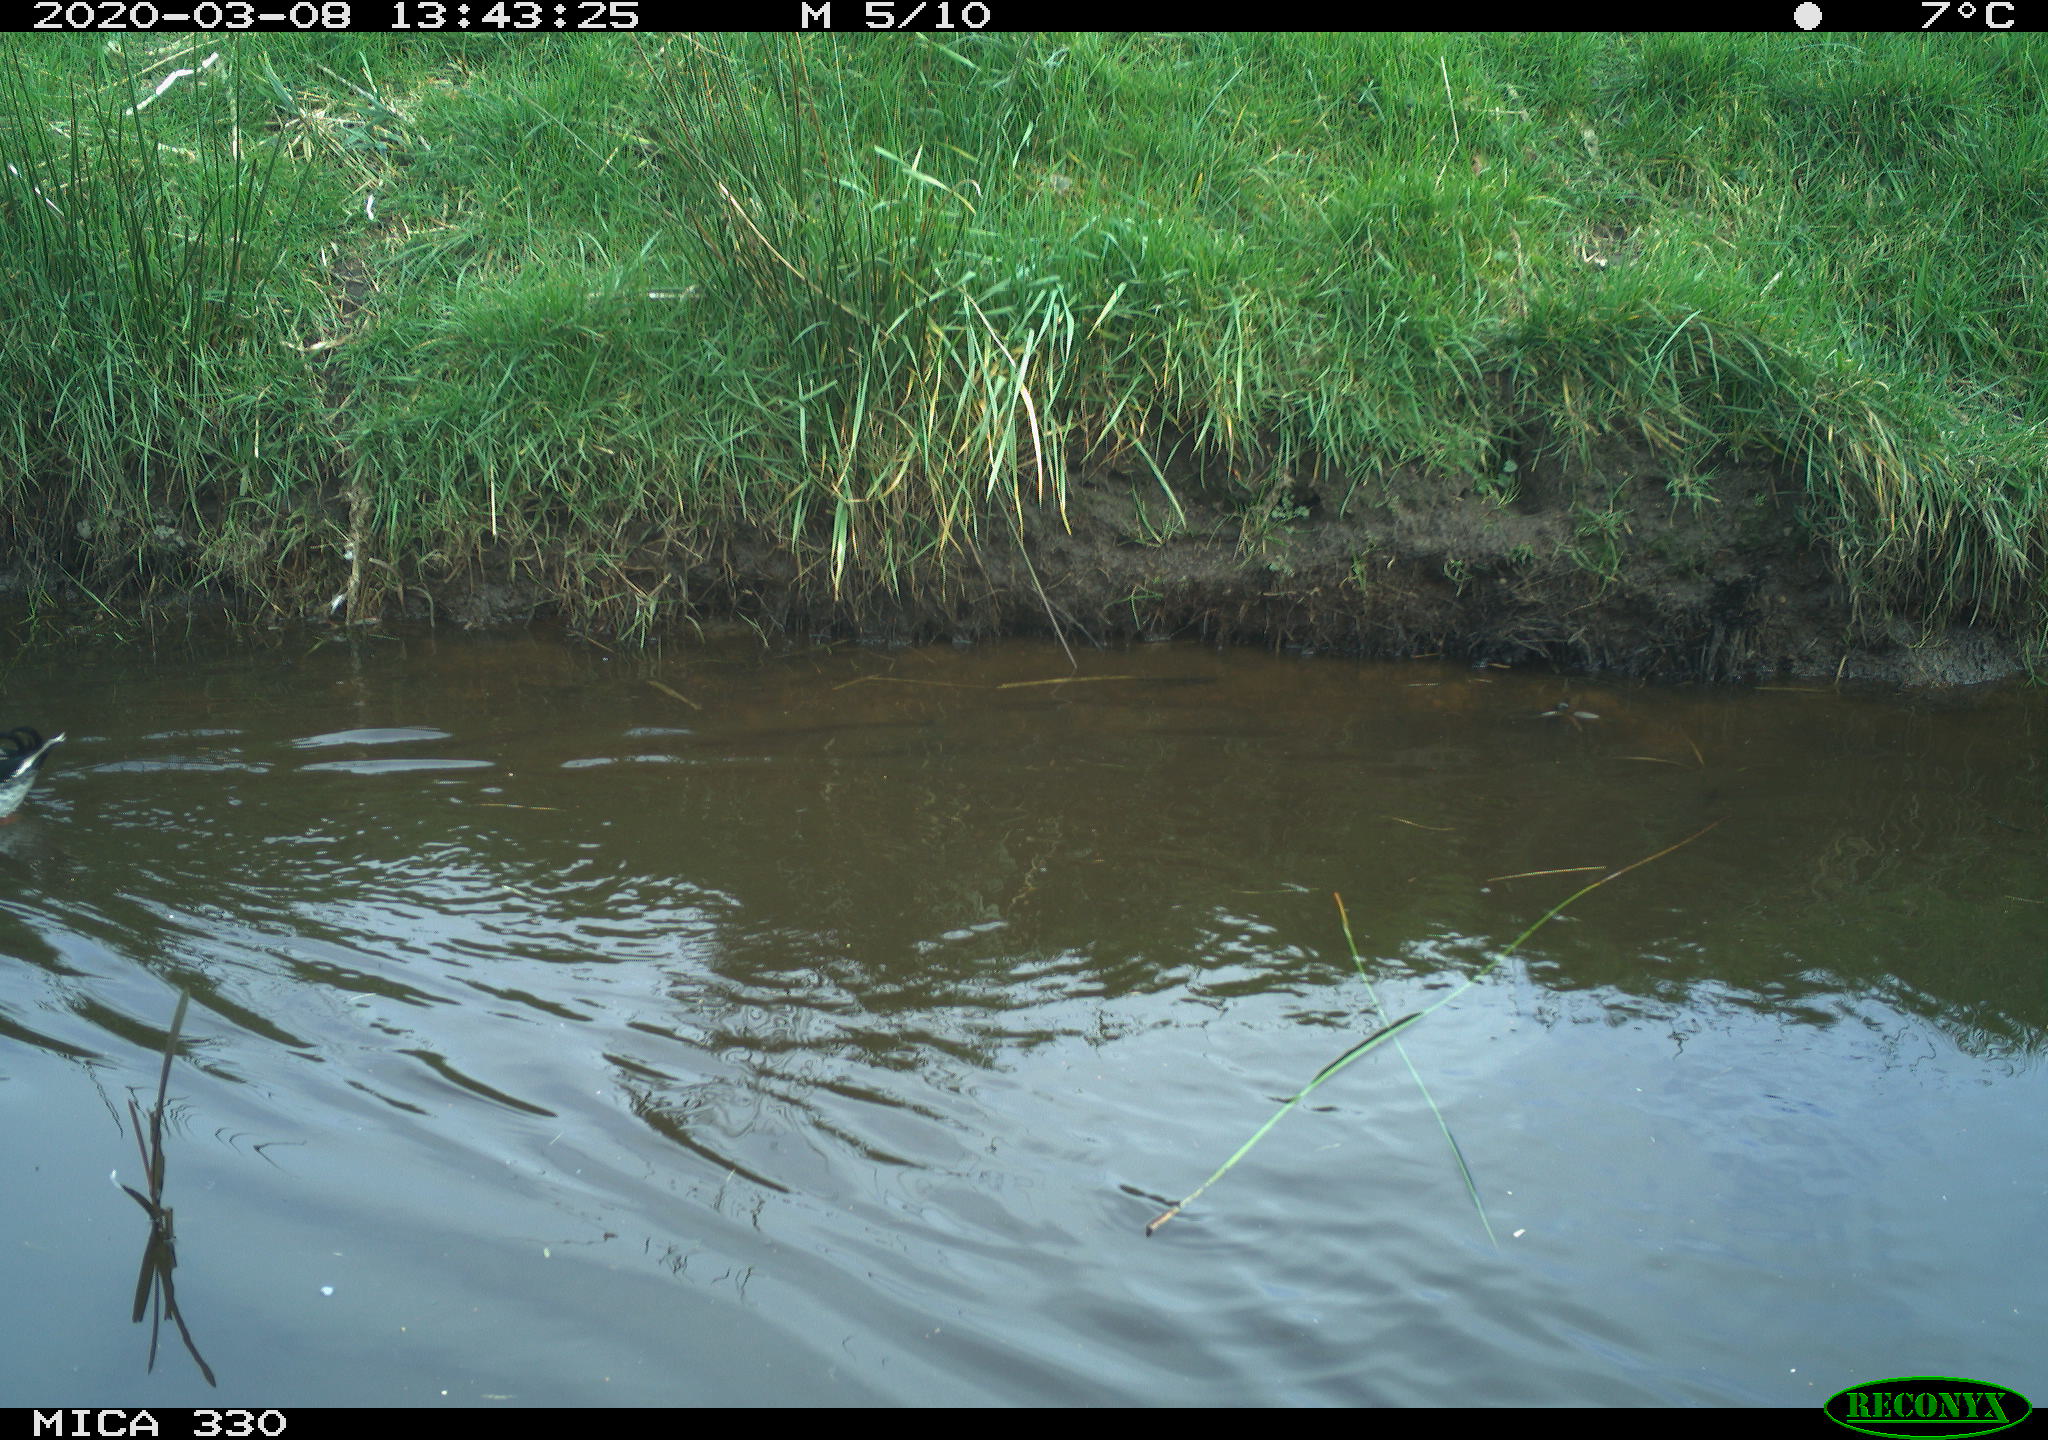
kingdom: Animalia
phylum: Chordata
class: Aves
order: Anseriformes
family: Anatidae
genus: Anas
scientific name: Anas platyrhynchos
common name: Mallard
